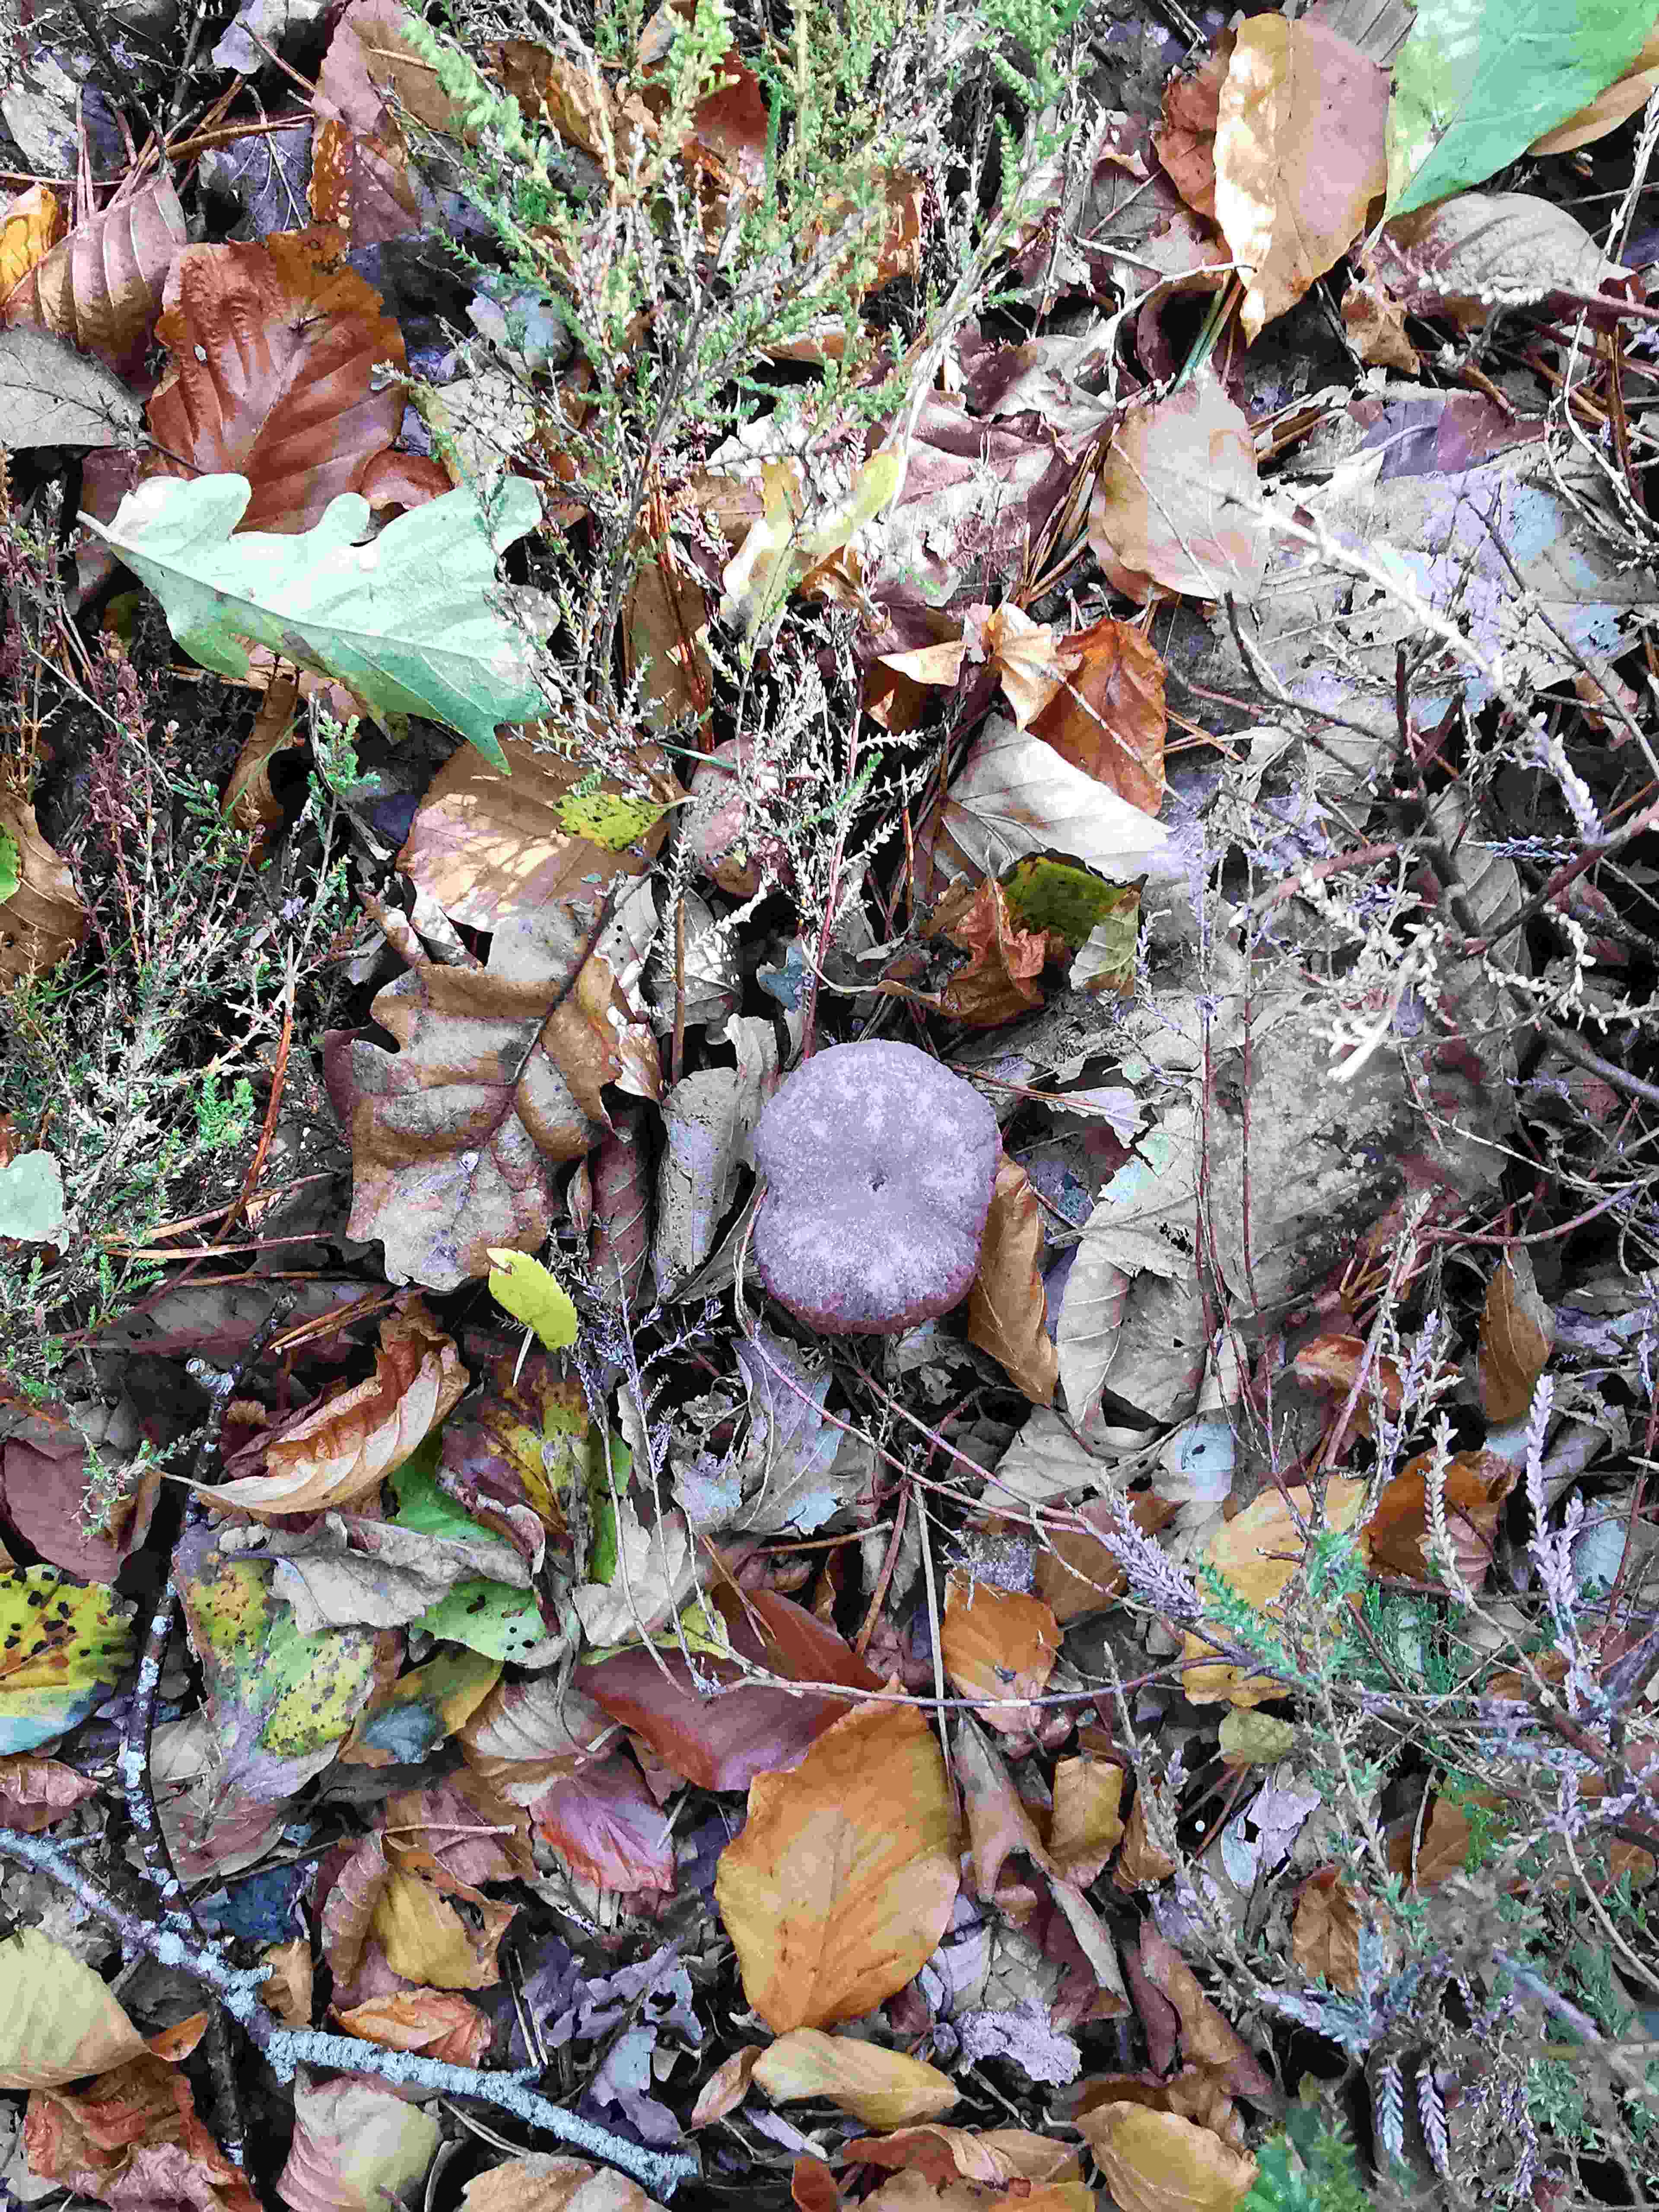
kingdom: Fungi
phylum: Basidiomycota
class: Agaricomycetes
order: Agaricales
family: Hydnangiaceae
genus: Laccaria
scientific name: Laccaria amethystina
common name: violet ametysthat
